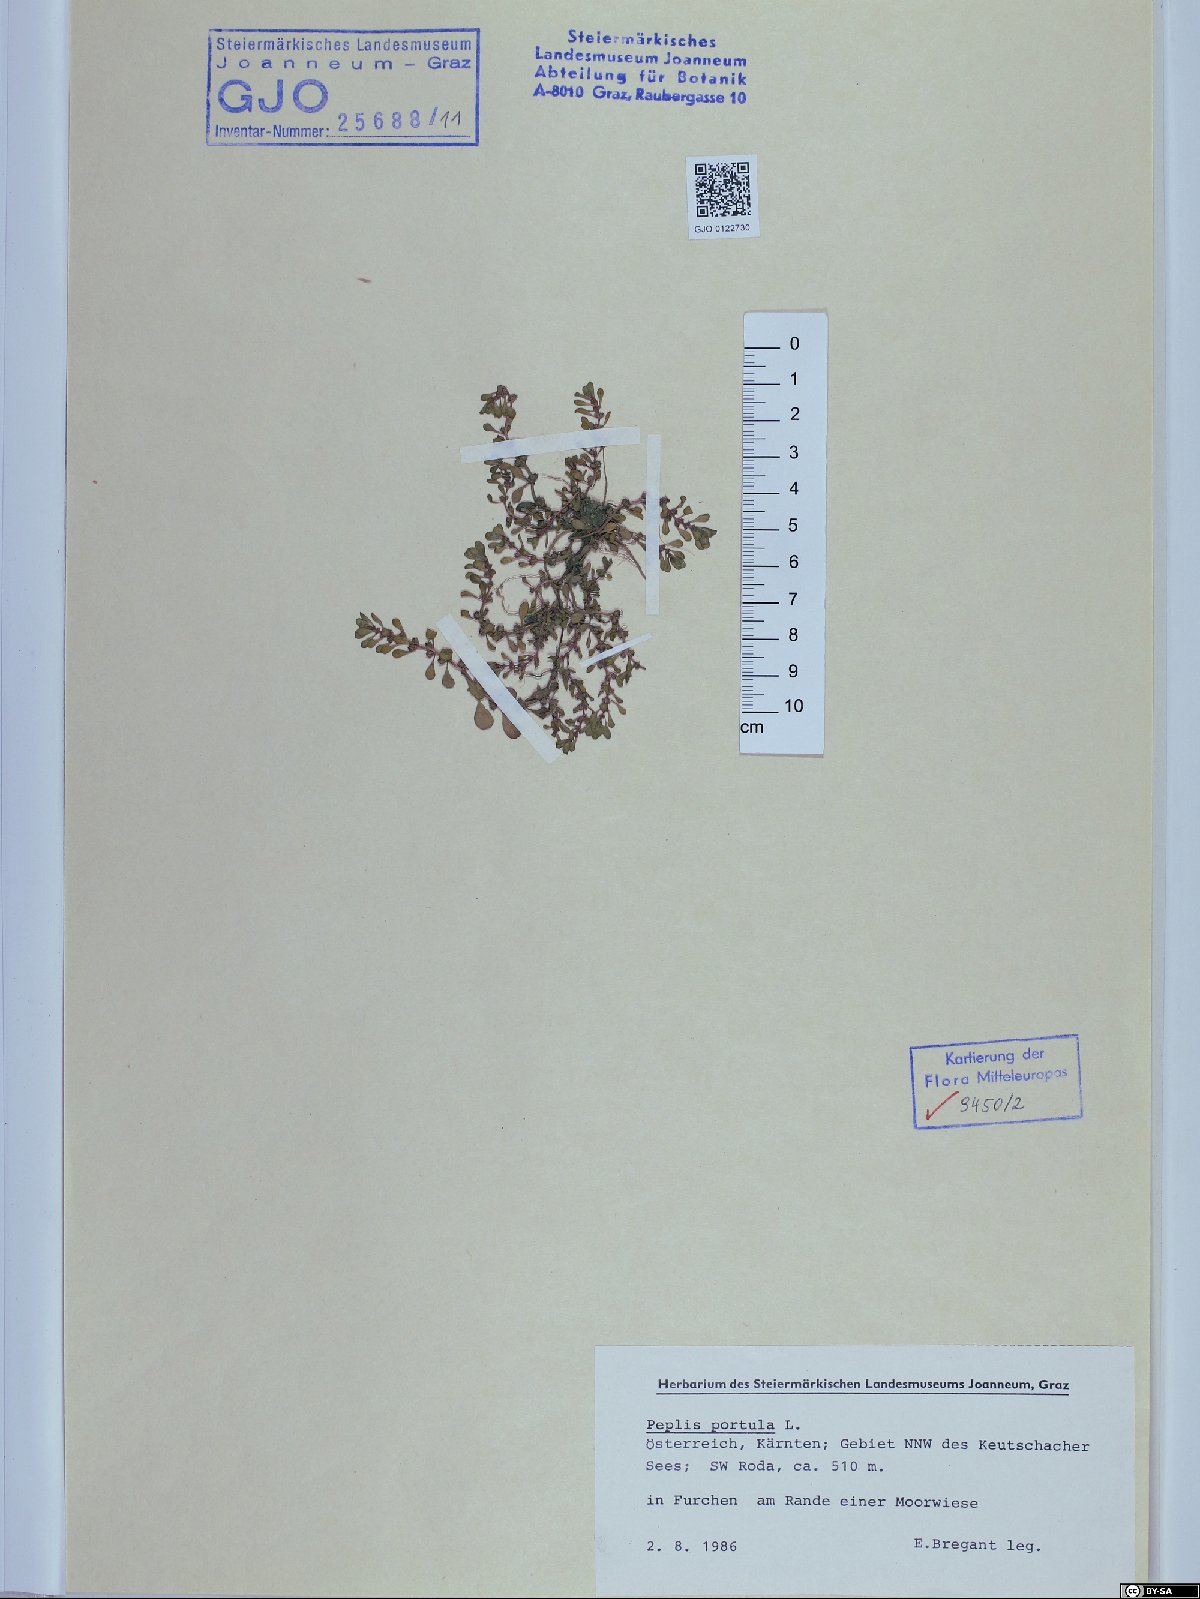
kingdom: Plantae
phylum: Tracheophyta
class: Magnoliopsida
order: Myrtales
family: Lythraceae
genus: Lythrum
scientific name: Lythrum portula
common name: Water purslane
